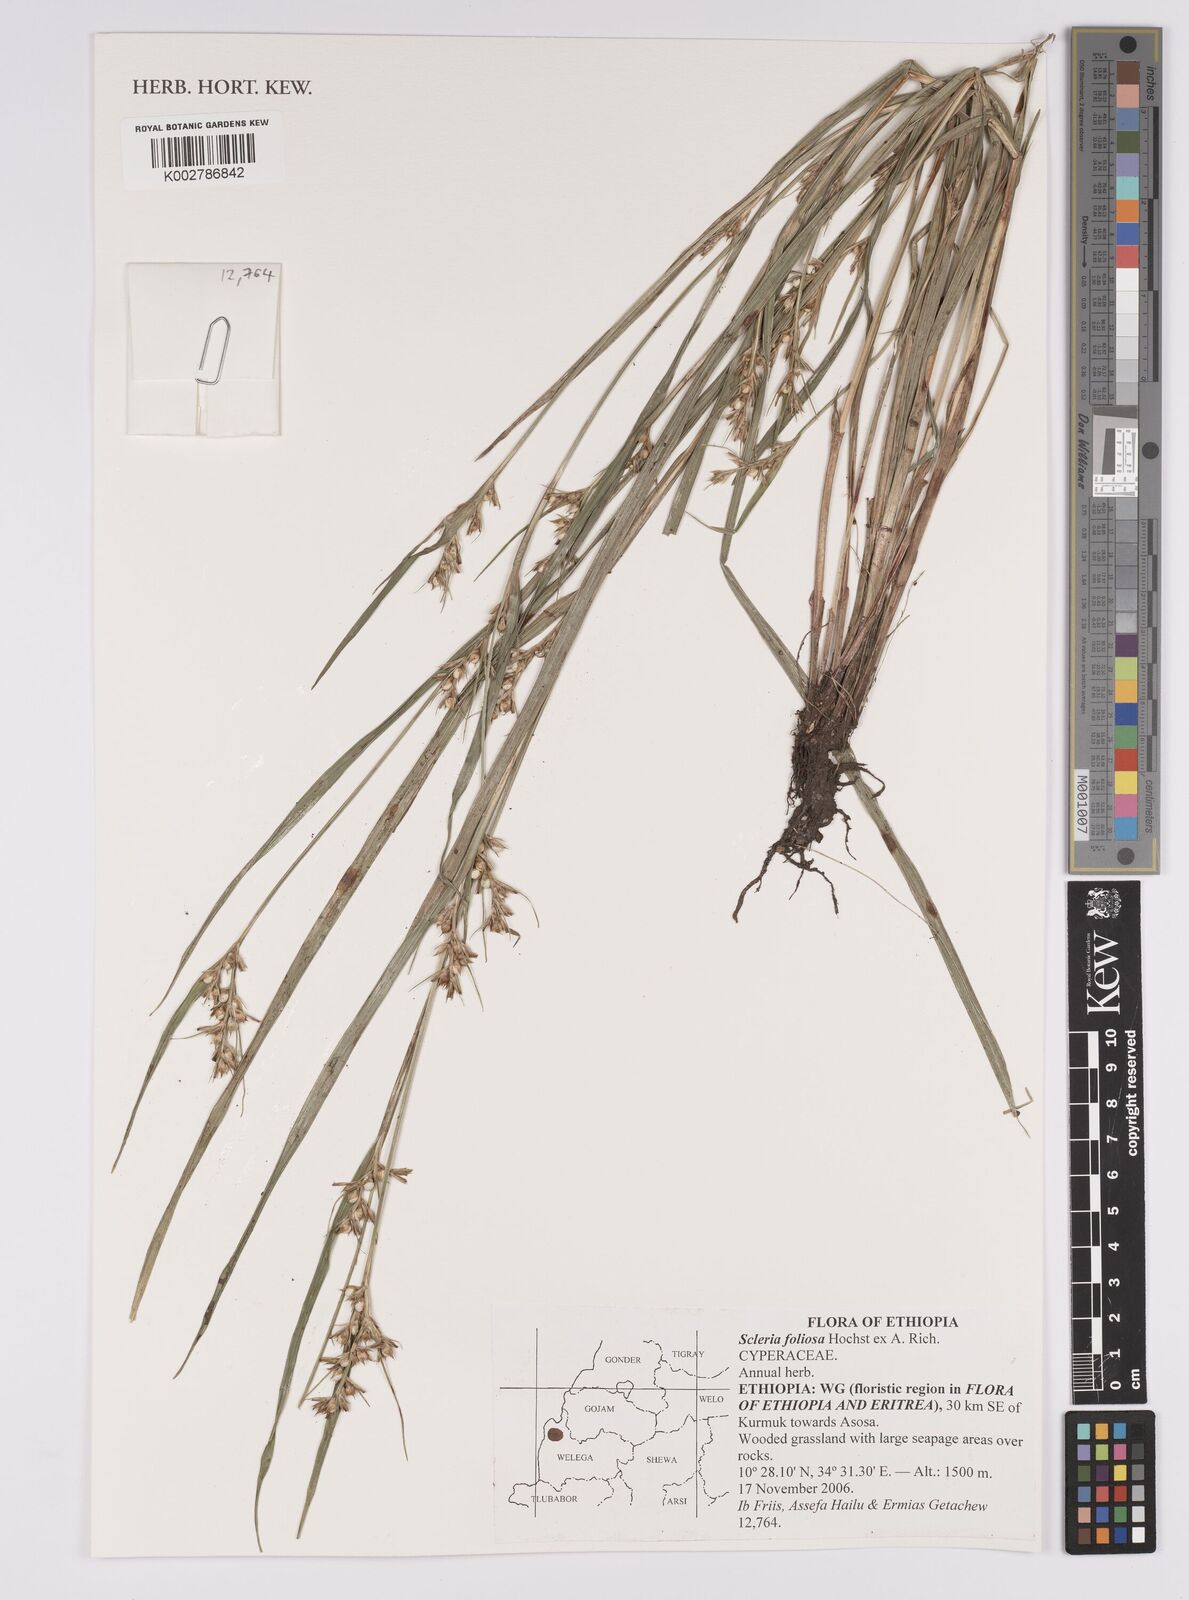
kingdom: Plantae
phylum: Tracheophyta
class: Liliopsida
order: Poales
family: Cyperaceae
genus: Scleria
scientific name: Scleria foliosa
